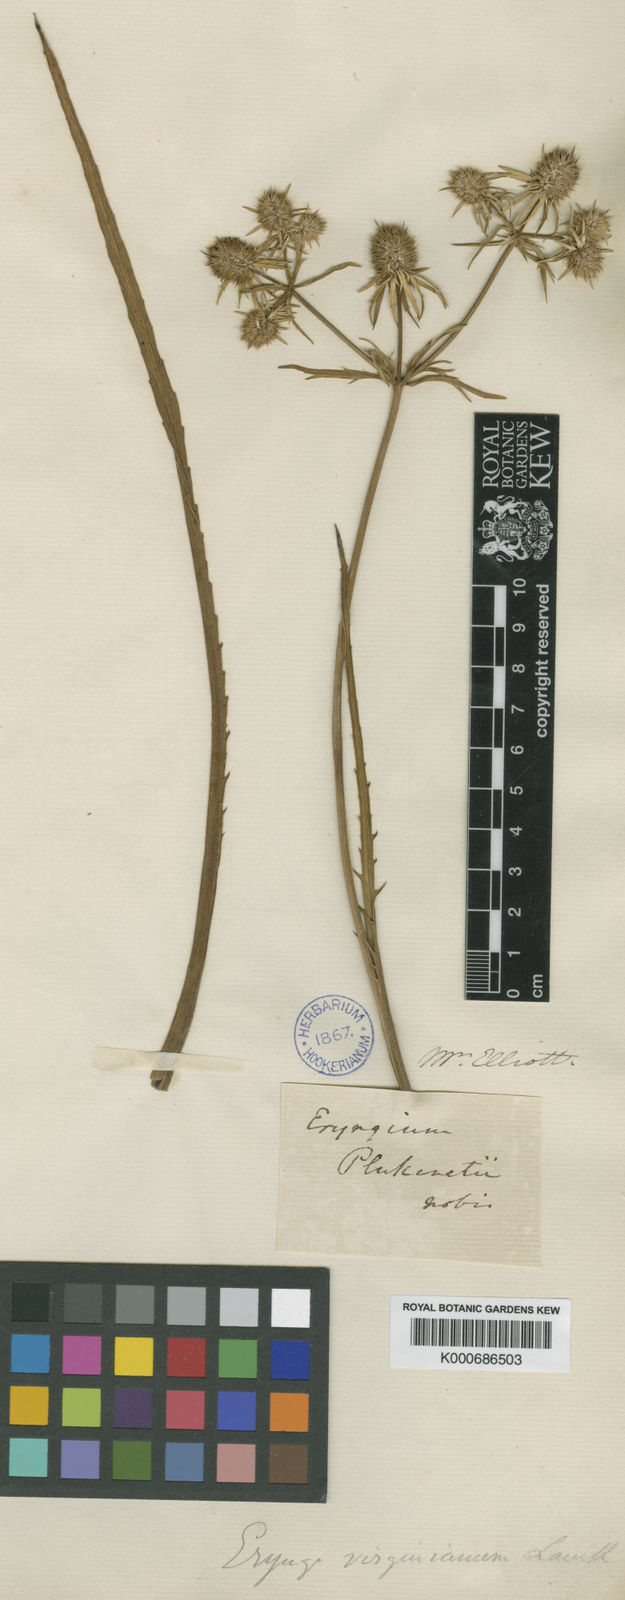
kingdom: Plantae
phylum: Tracheophyta
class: Magnoliopsida
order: Apiales
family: Apiaceae
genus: Eryngium
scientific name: Eryngium aquaticum
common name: Water eryngo
